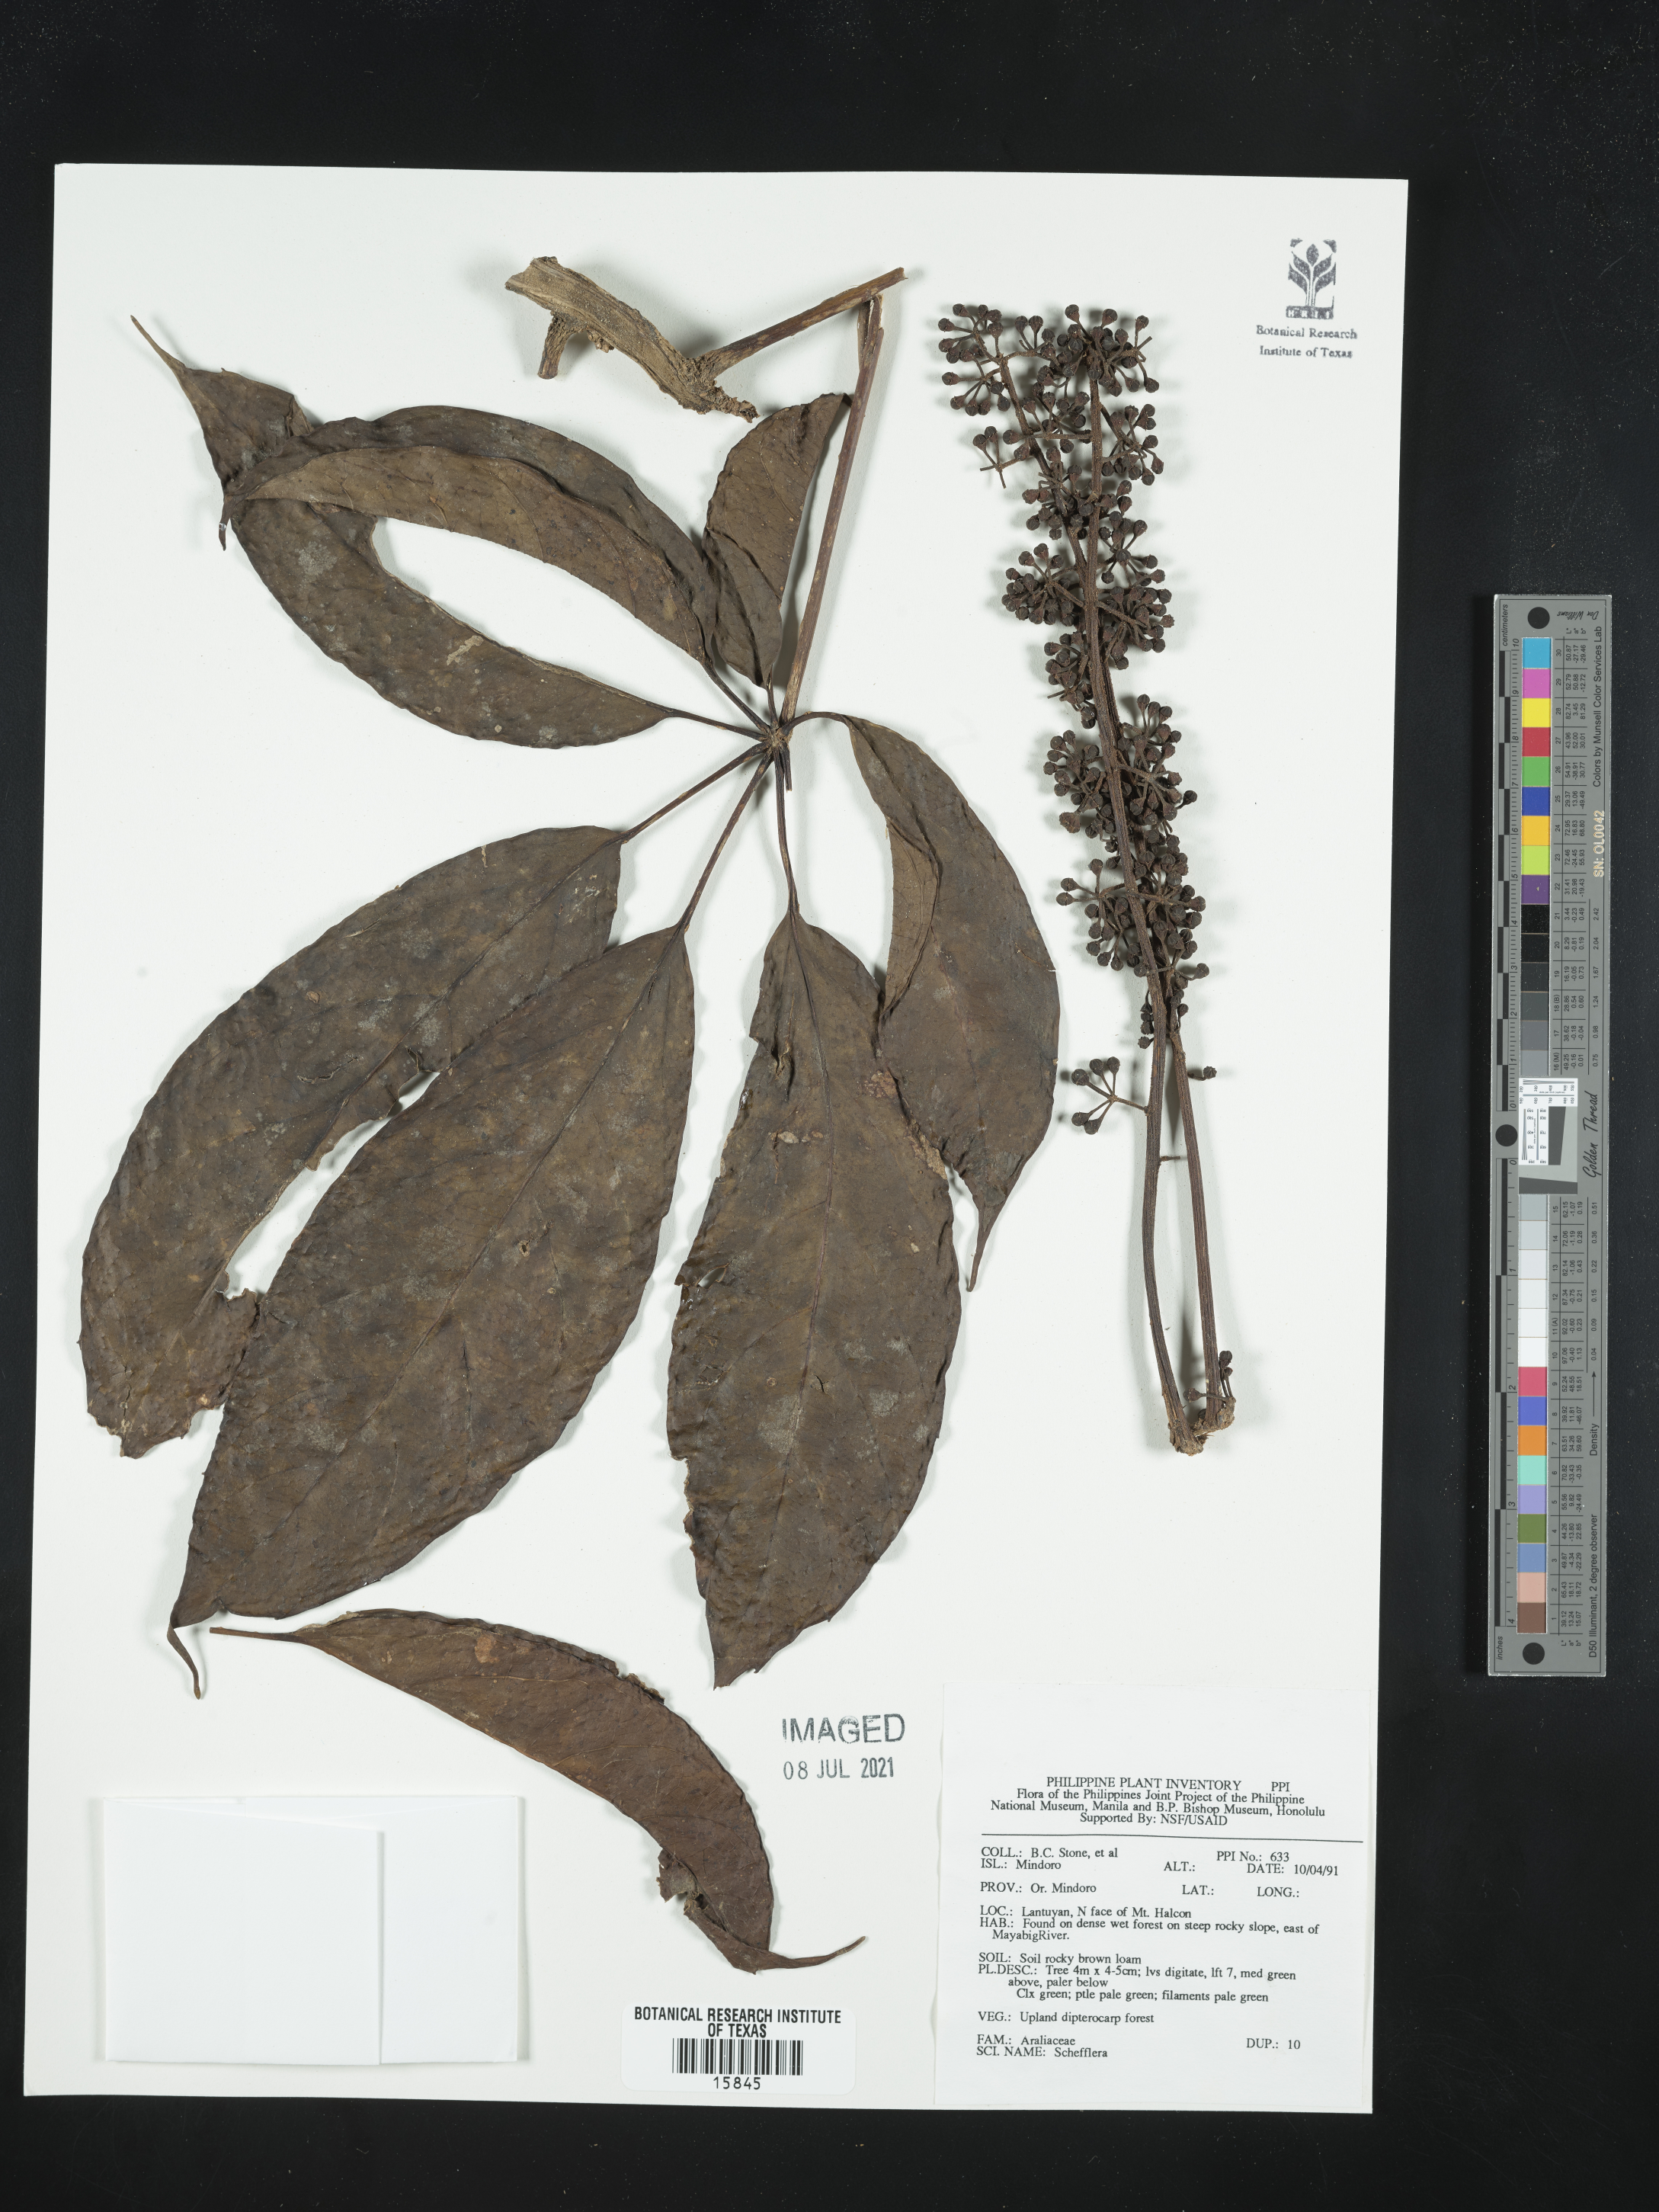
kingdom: Plantae
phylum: Tracheophyta
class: Magnoliopsida
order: Apiales
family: Araliaceae
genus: Schefflera
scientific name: Schefflera
